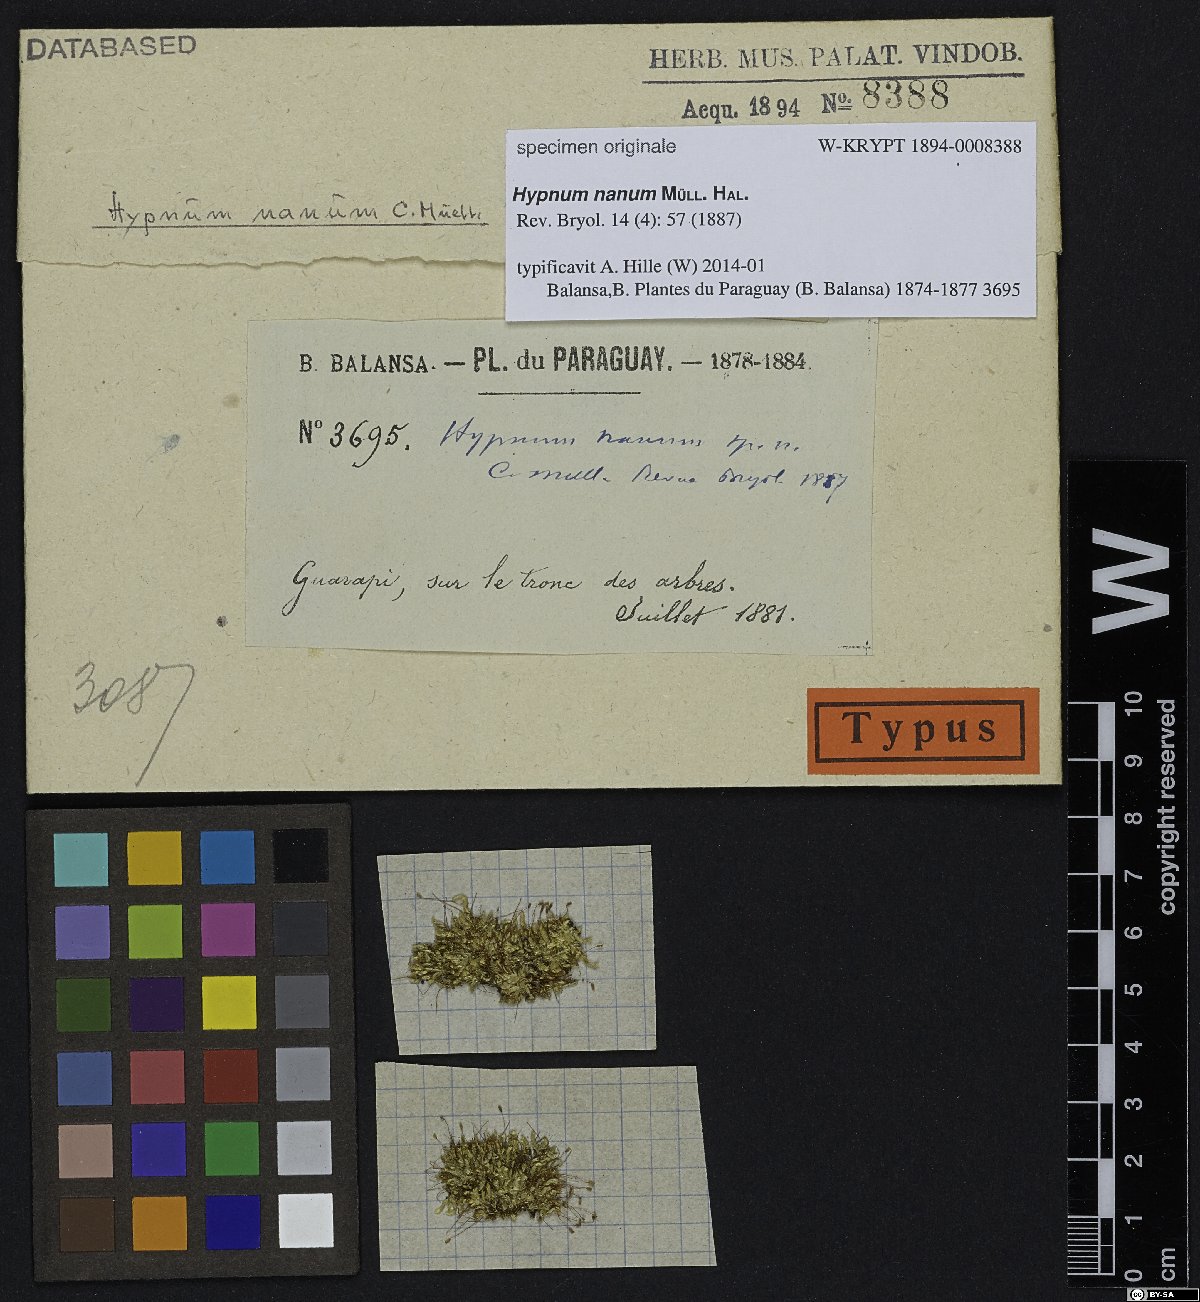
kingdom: Plantae
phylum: Bryophyta
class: Bryopsida
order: Hypnales
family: Hypnaceae
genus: Hypnum
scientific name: Hypnum nanum
